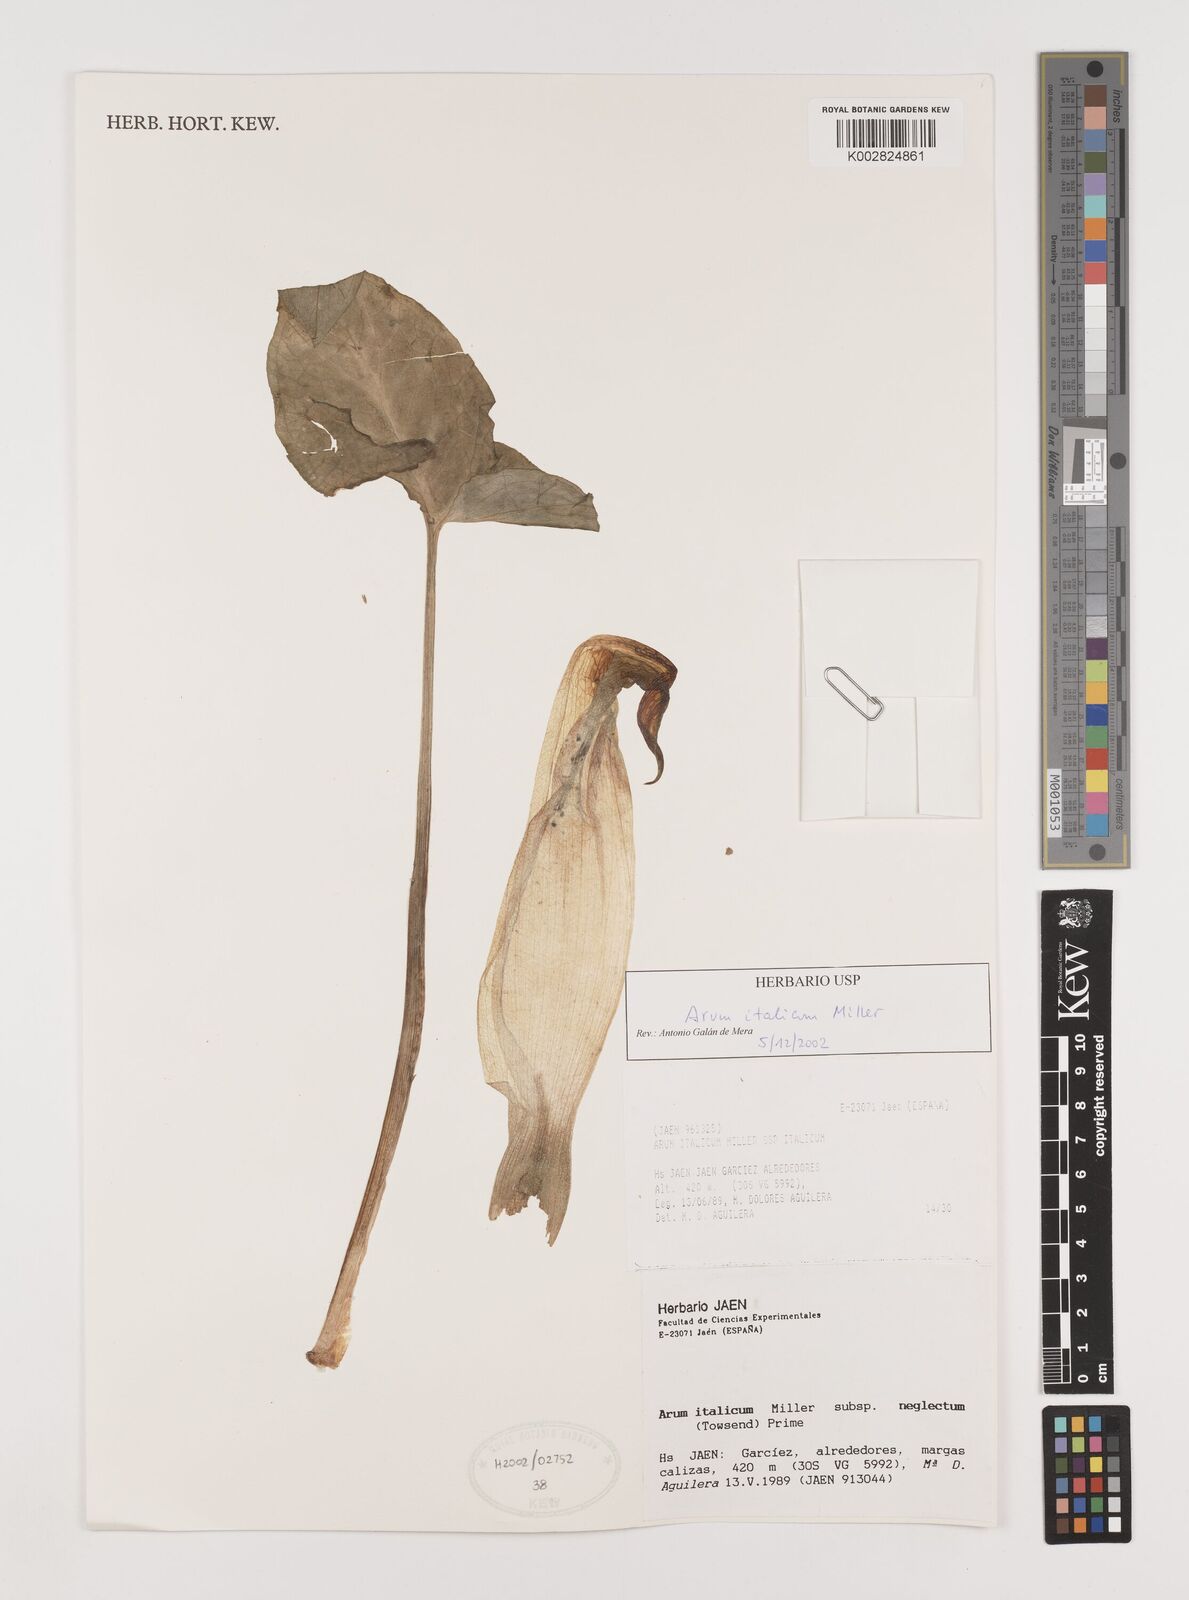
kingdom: Plantae
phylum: Tracheophyta
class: Liliopsida
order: Alismatales
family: Araceae
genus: Arum
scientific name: Arum italicum
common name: Italian lords-and-ladies
